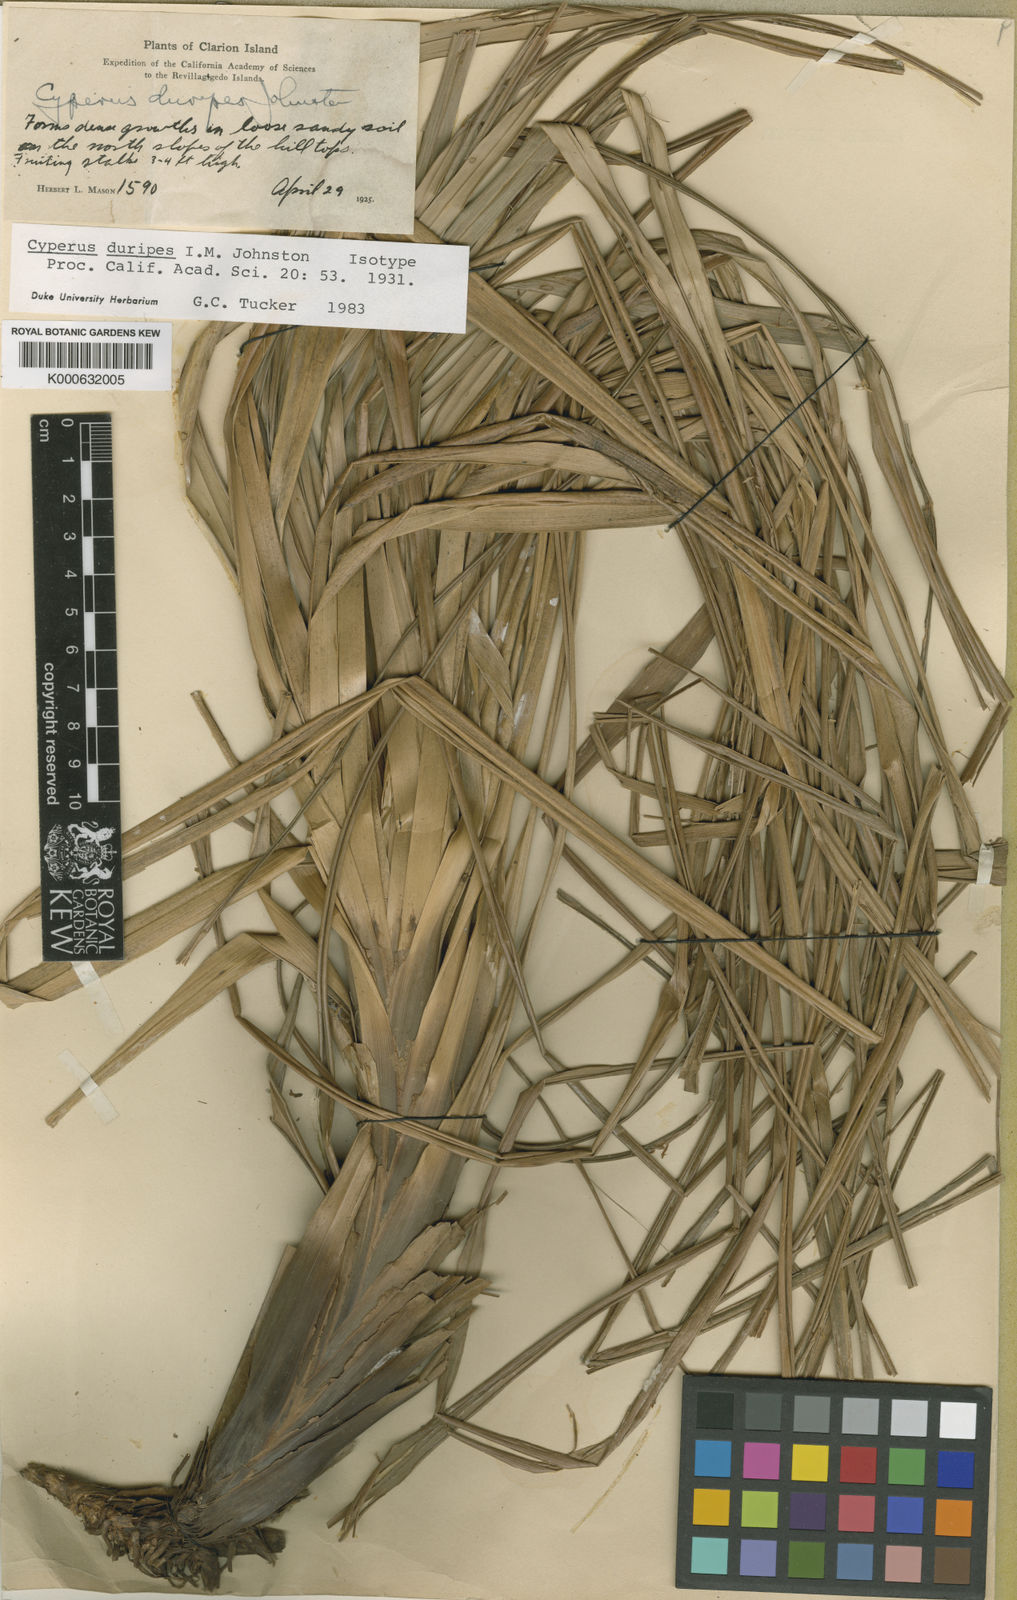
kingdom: Plantae
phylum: Tracheophyta
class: Liliopsida
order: Poales
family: Cyperaceae
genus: Cyperus
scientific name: Cyperus duripes
